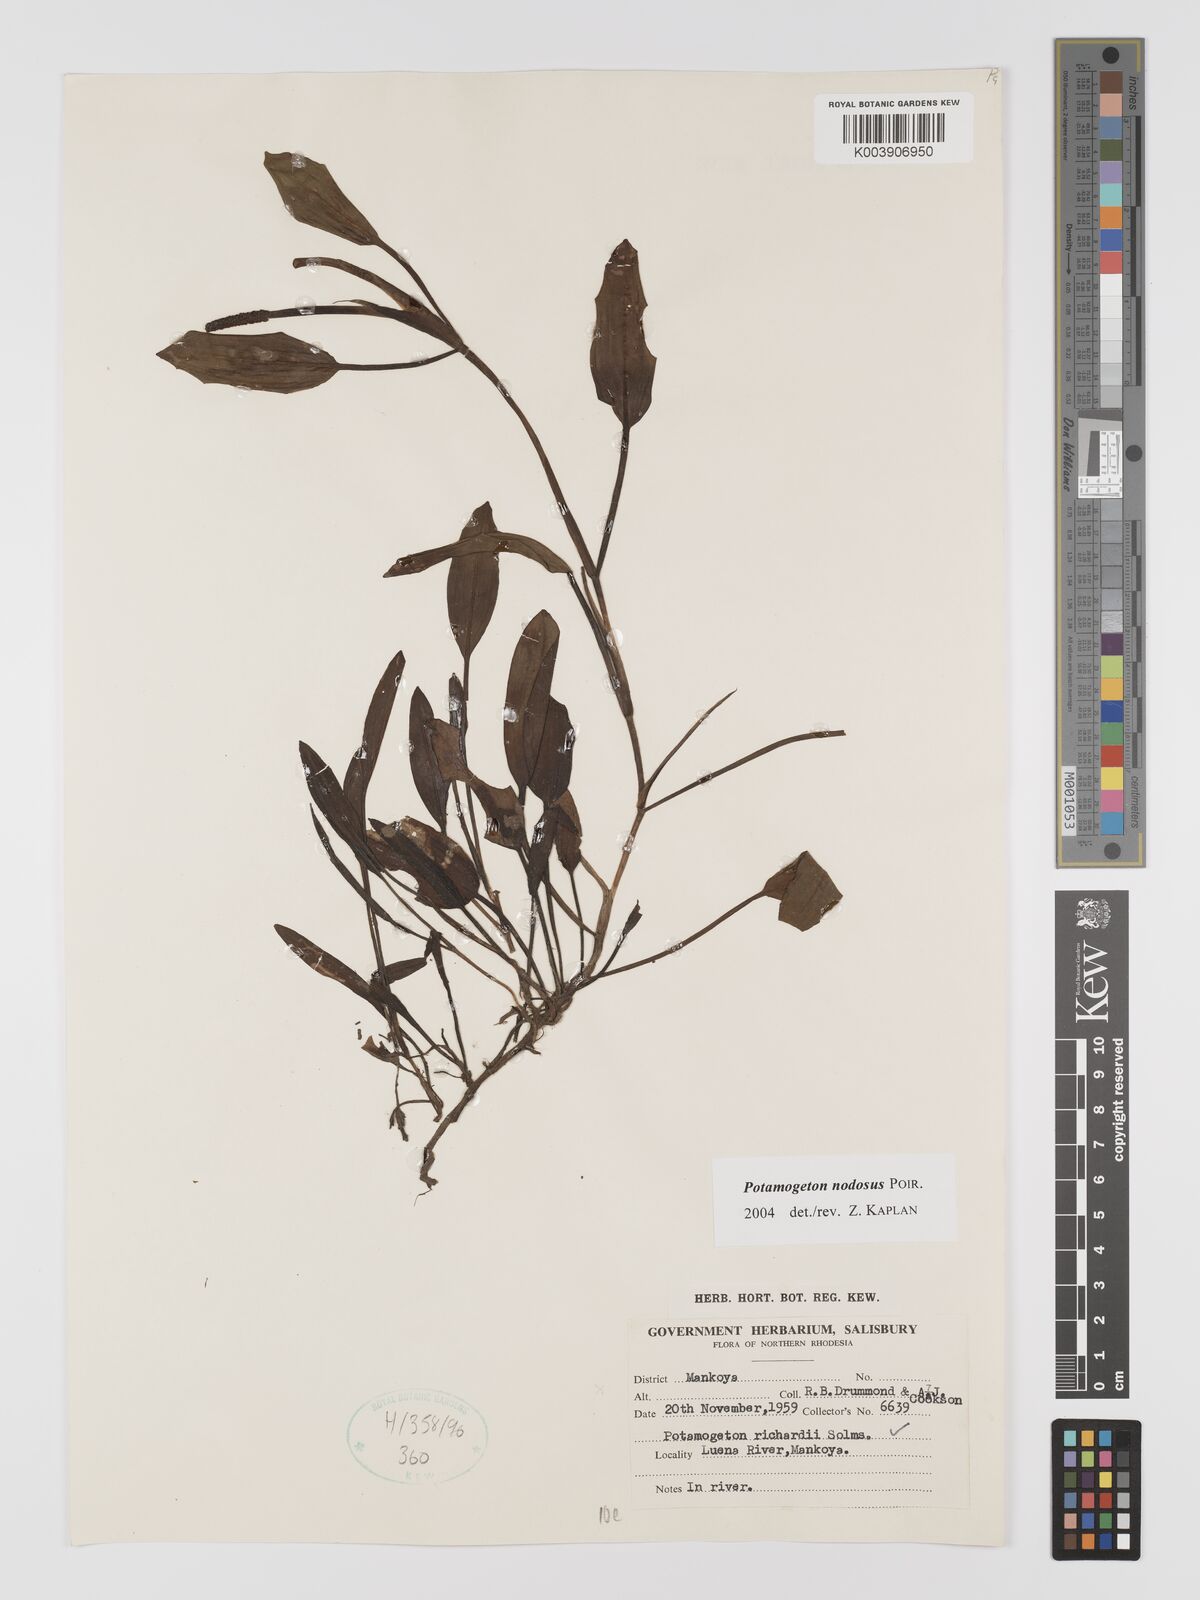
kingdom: Plantae
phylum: Tracheophyta
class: Liliopsida
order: Alismatales
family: Potamogetonaceae
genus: Potamogeton
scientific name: Potamogeton nodosus
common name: Loddon pondweed
